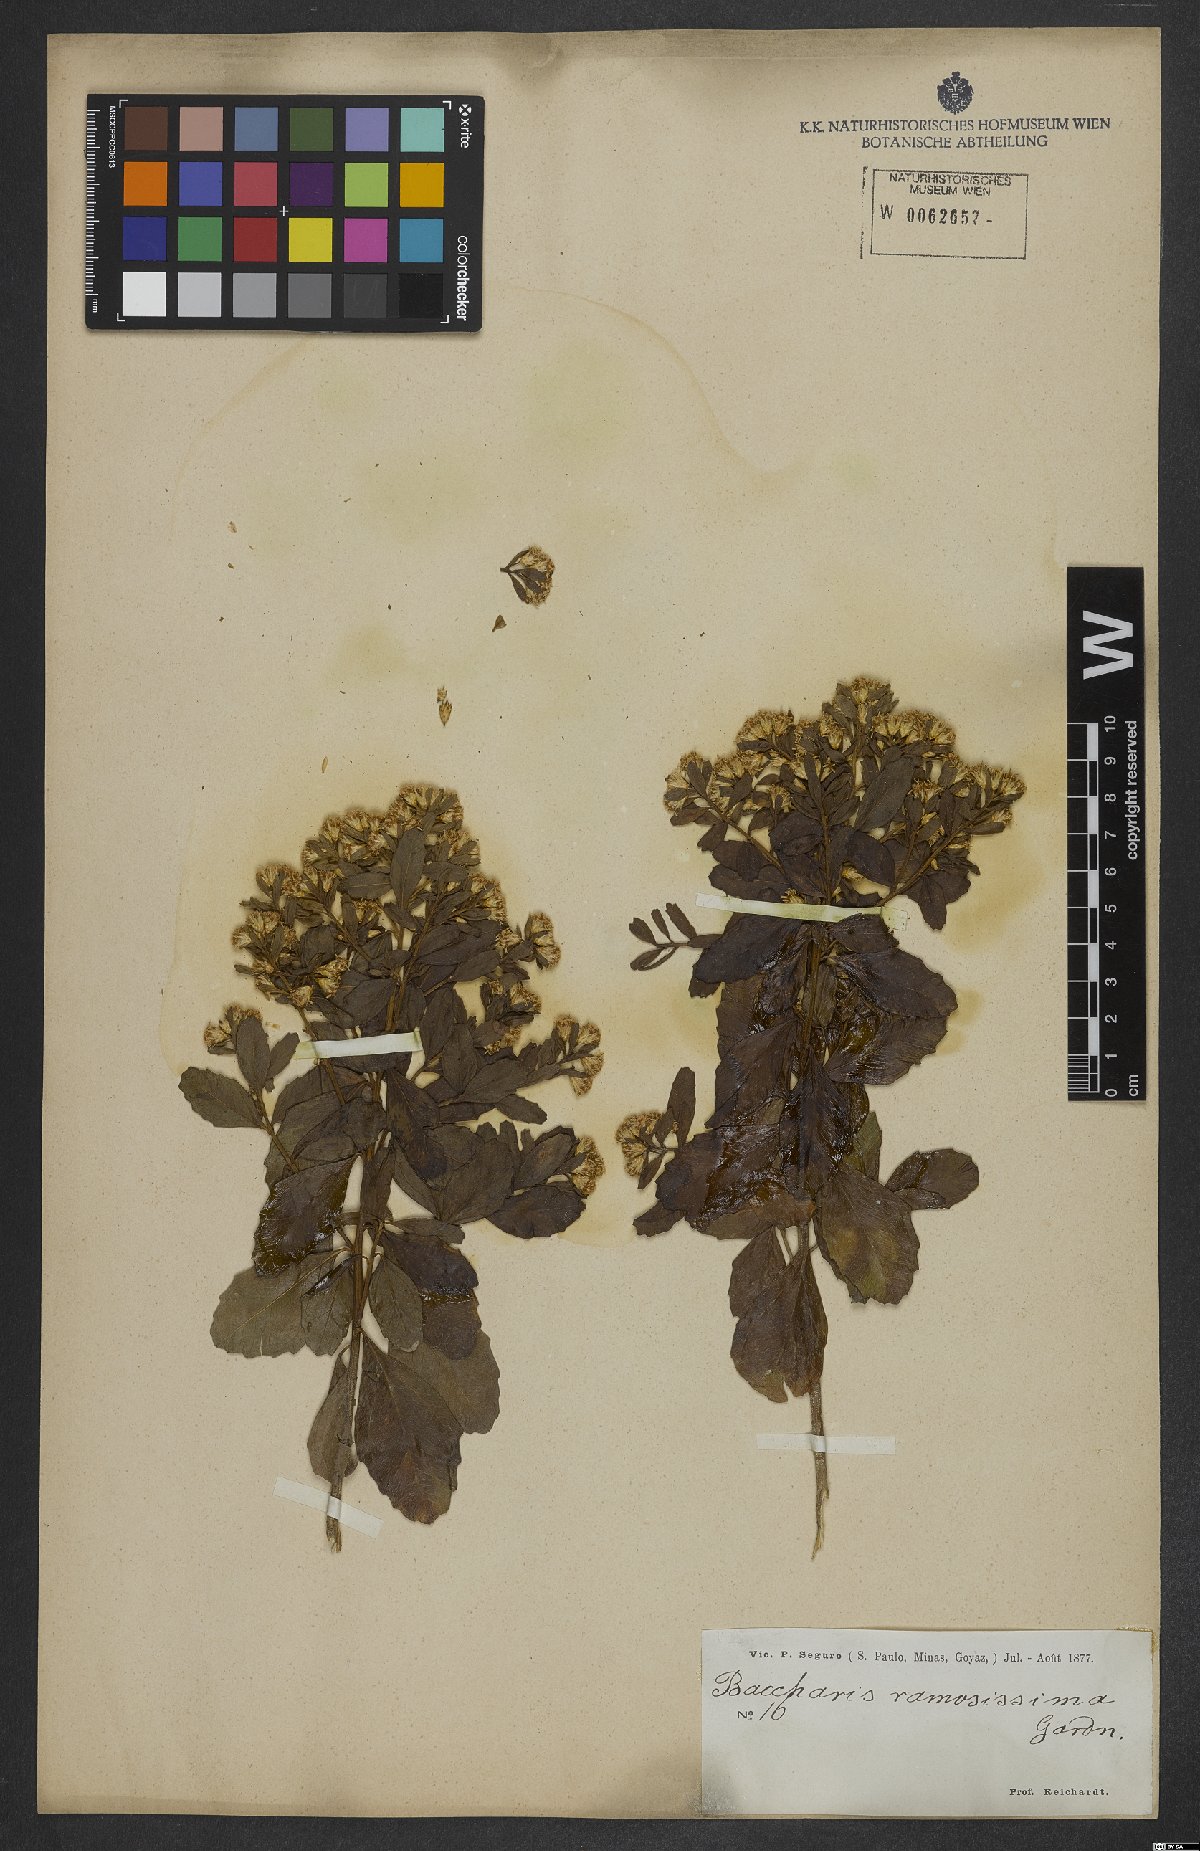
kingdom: Plantae
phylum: Tracheophyta
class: Magnoliopsida
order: Asterales
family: Asteraceae
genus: Baccharis
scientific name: Baccharis retusa
